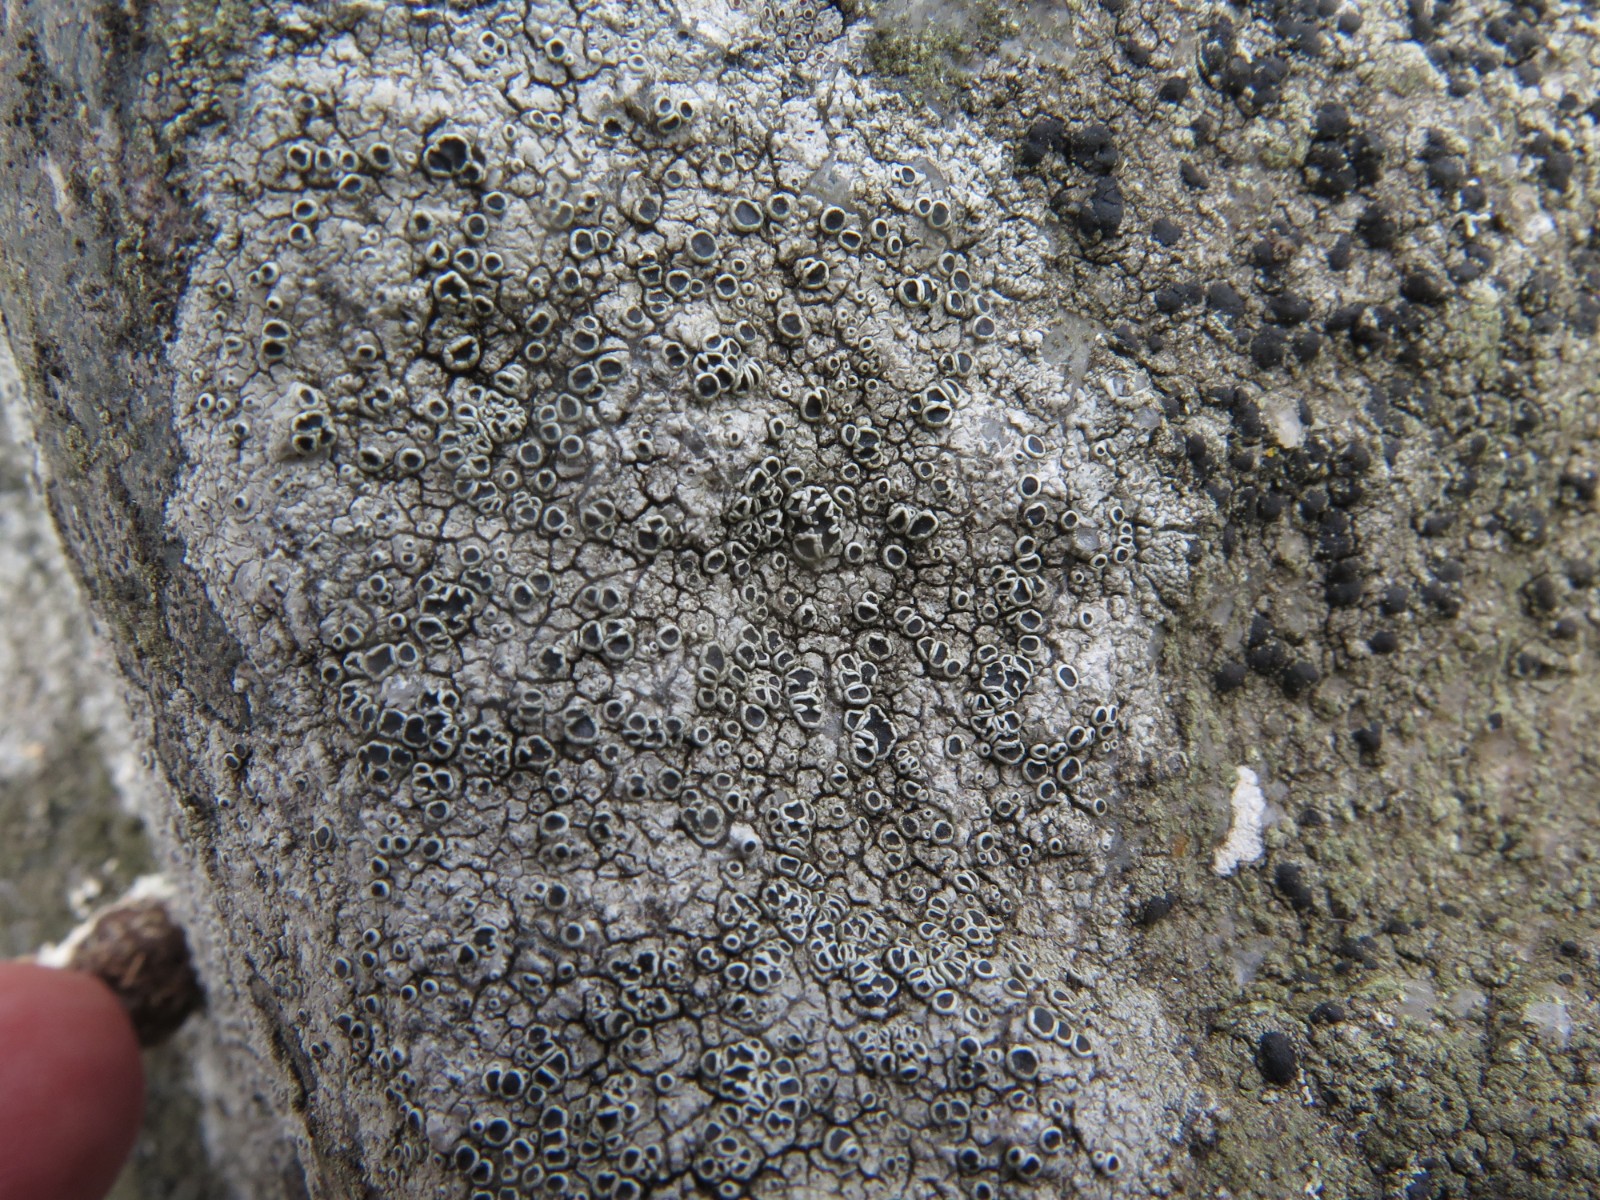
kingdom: Fungi
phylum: Ascomycota
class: Lecanoromycetes
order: Lecanorales
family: Tephromelataceae
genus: Tephromela
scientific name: Tephromela atra
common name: sortfrugtet kantskivelav
